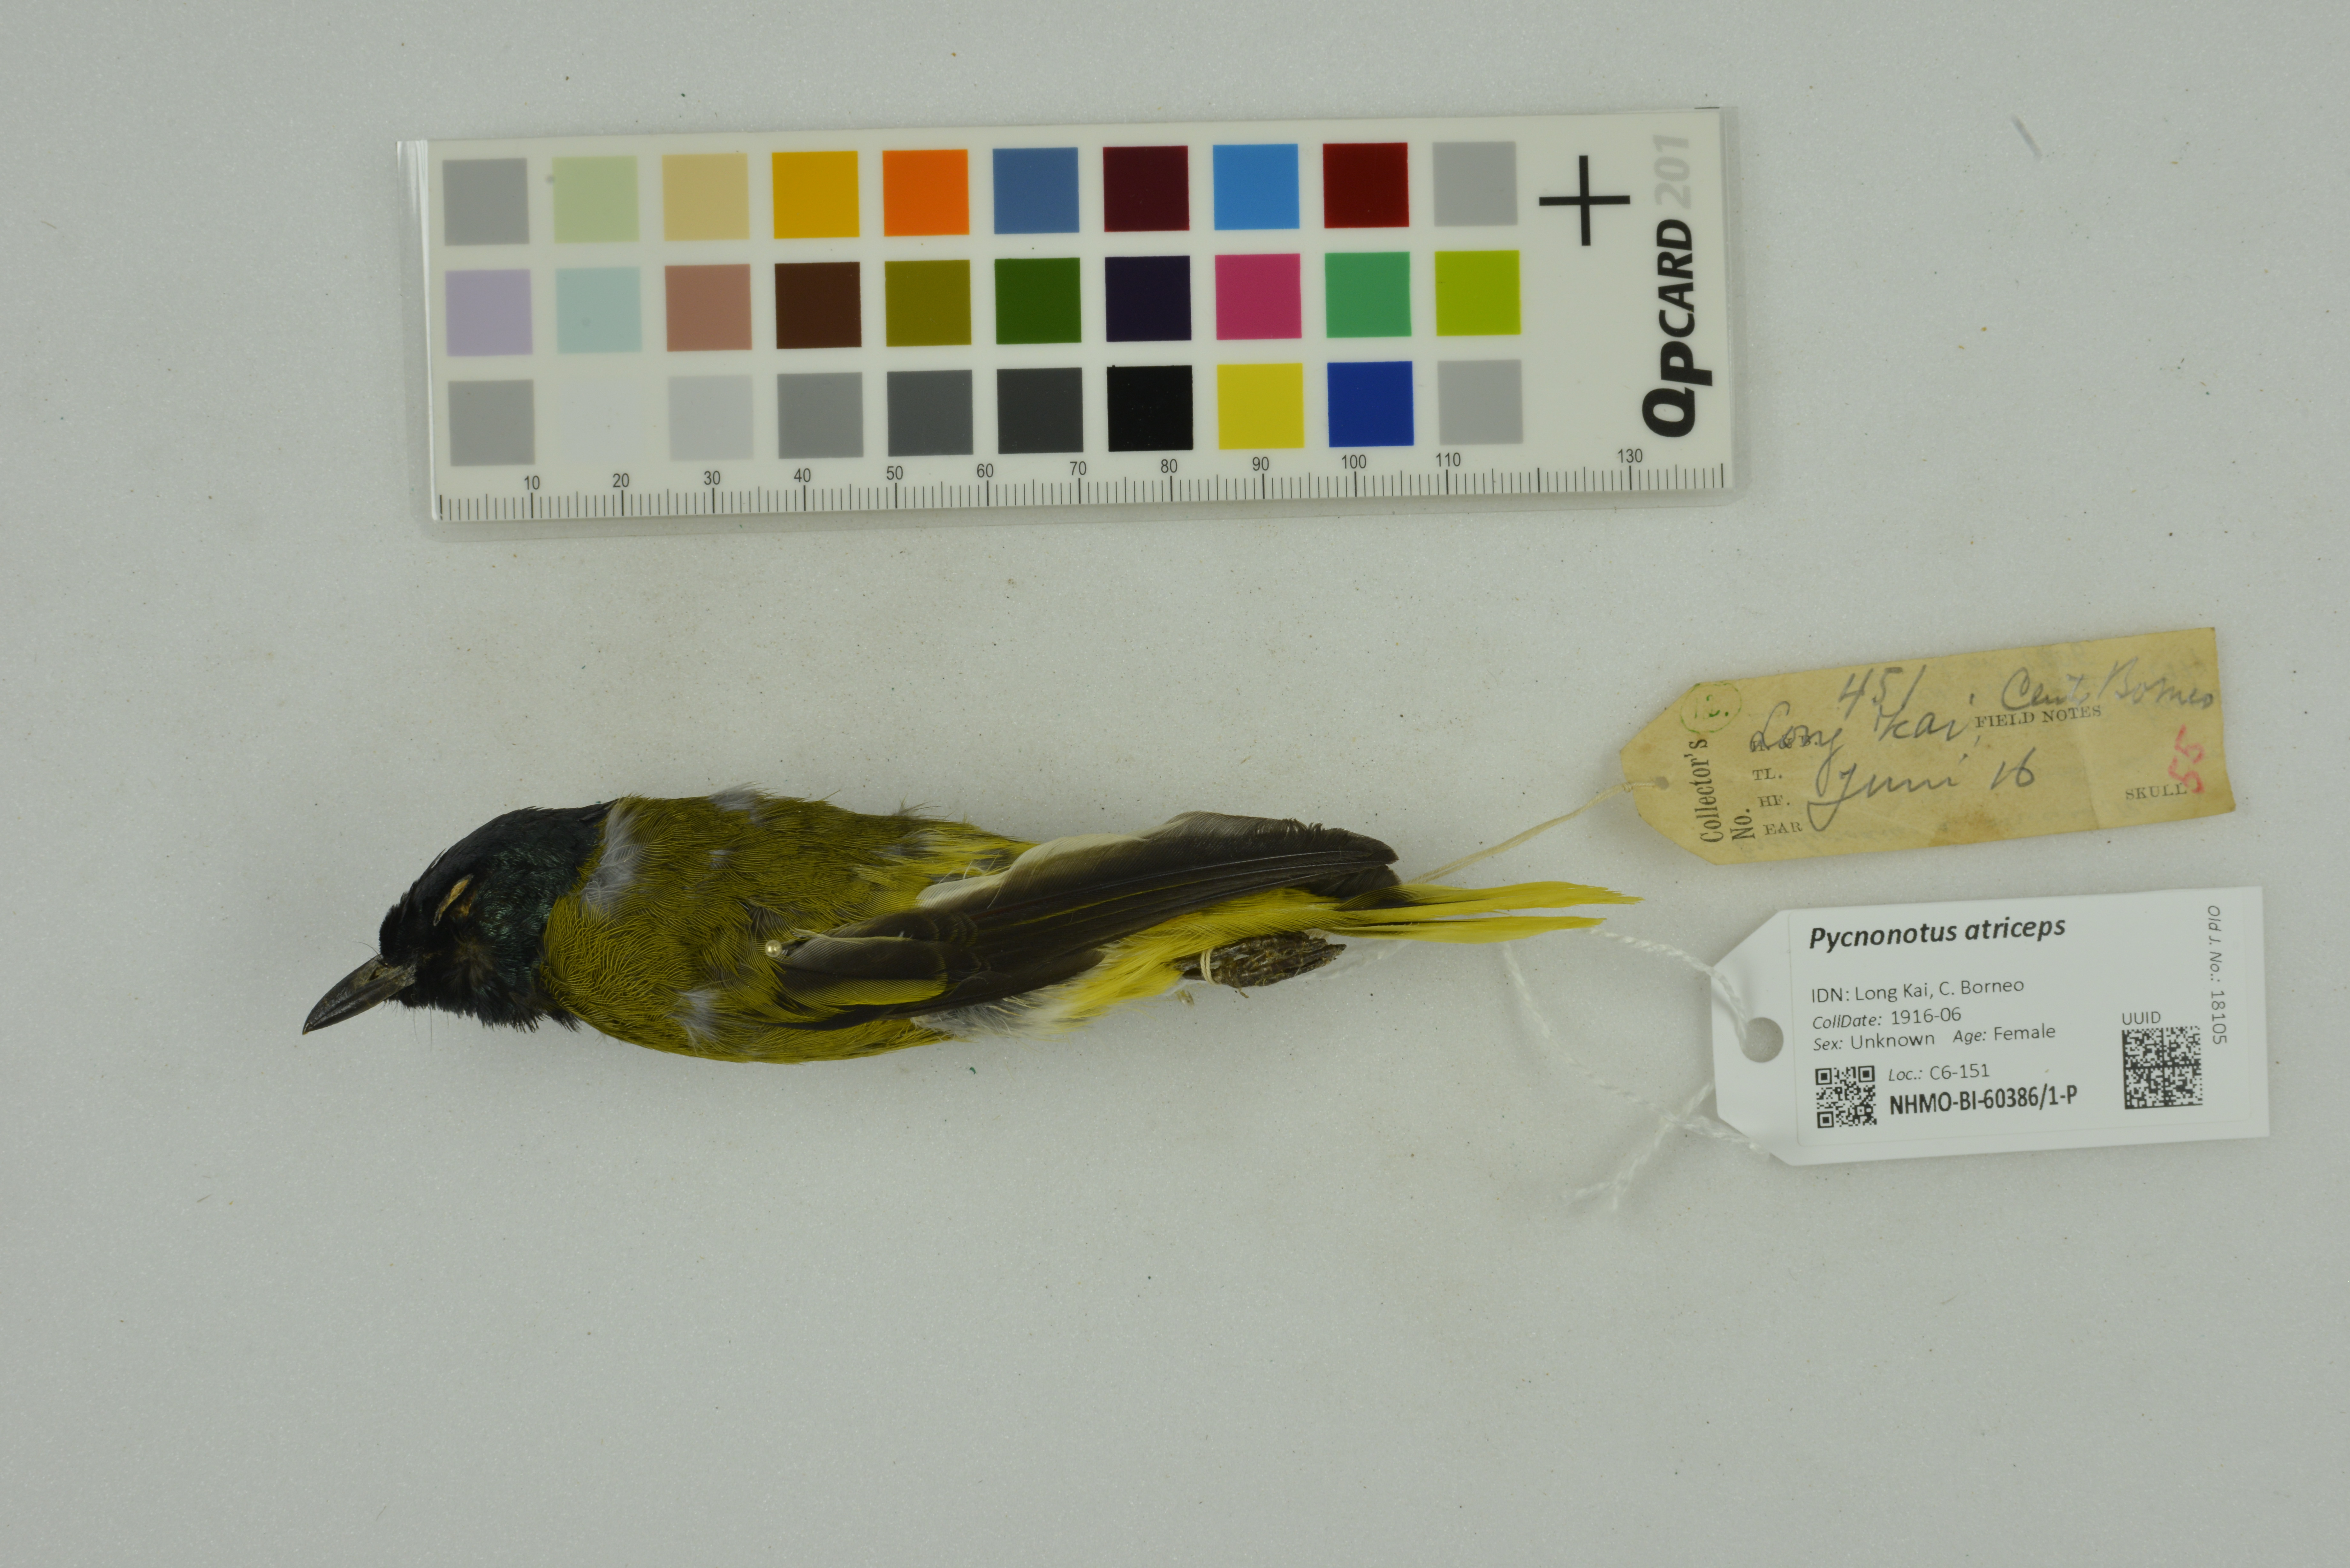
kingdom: Animalia
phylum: Chordata
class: Aves
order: Passeriformes
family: Pycnonotidae
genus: Brachypodius
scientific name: Brachypodius melanocephalos
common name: Black-headed bulbul
